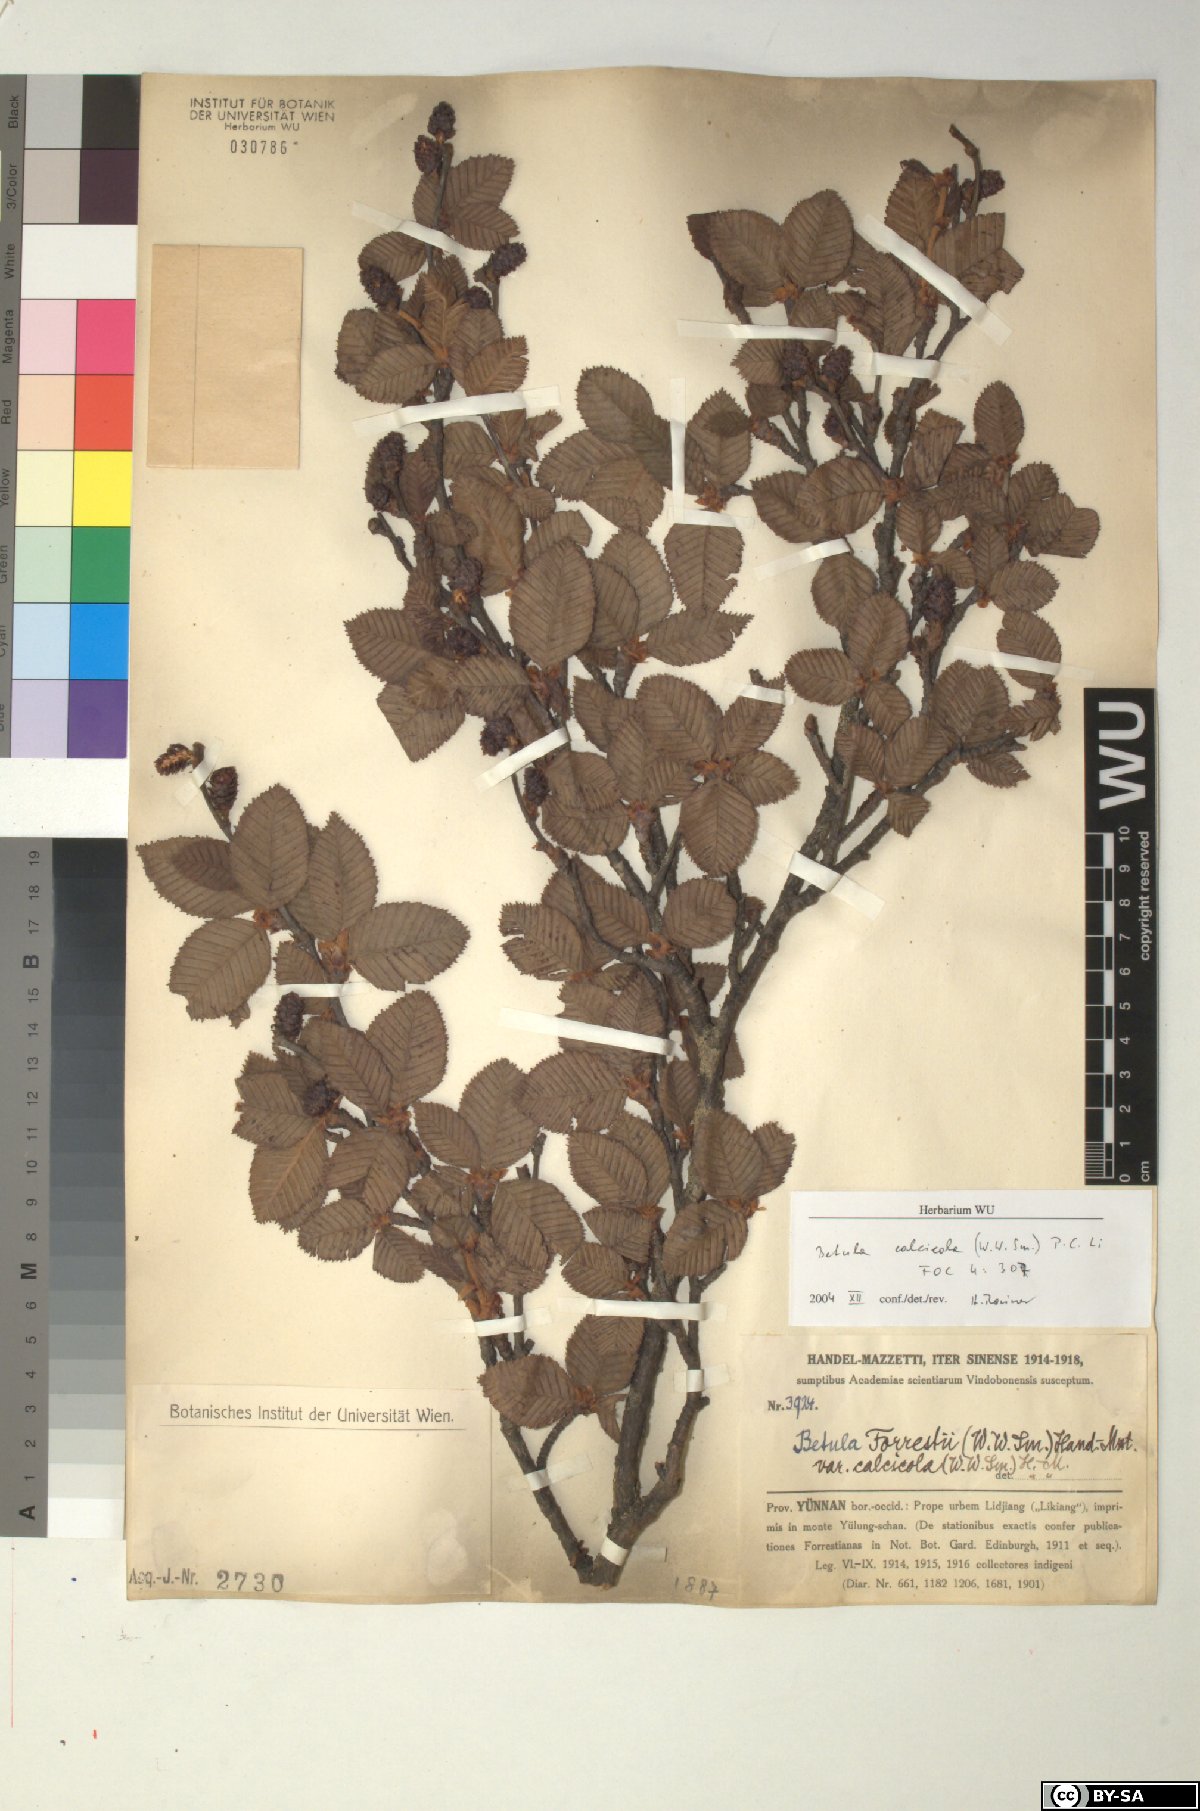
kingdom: Plantae
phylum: Tracheophyta
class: Magnoliopsida
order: Fagales
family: Betulaceae
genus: Betula
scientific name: Betula calcicola
